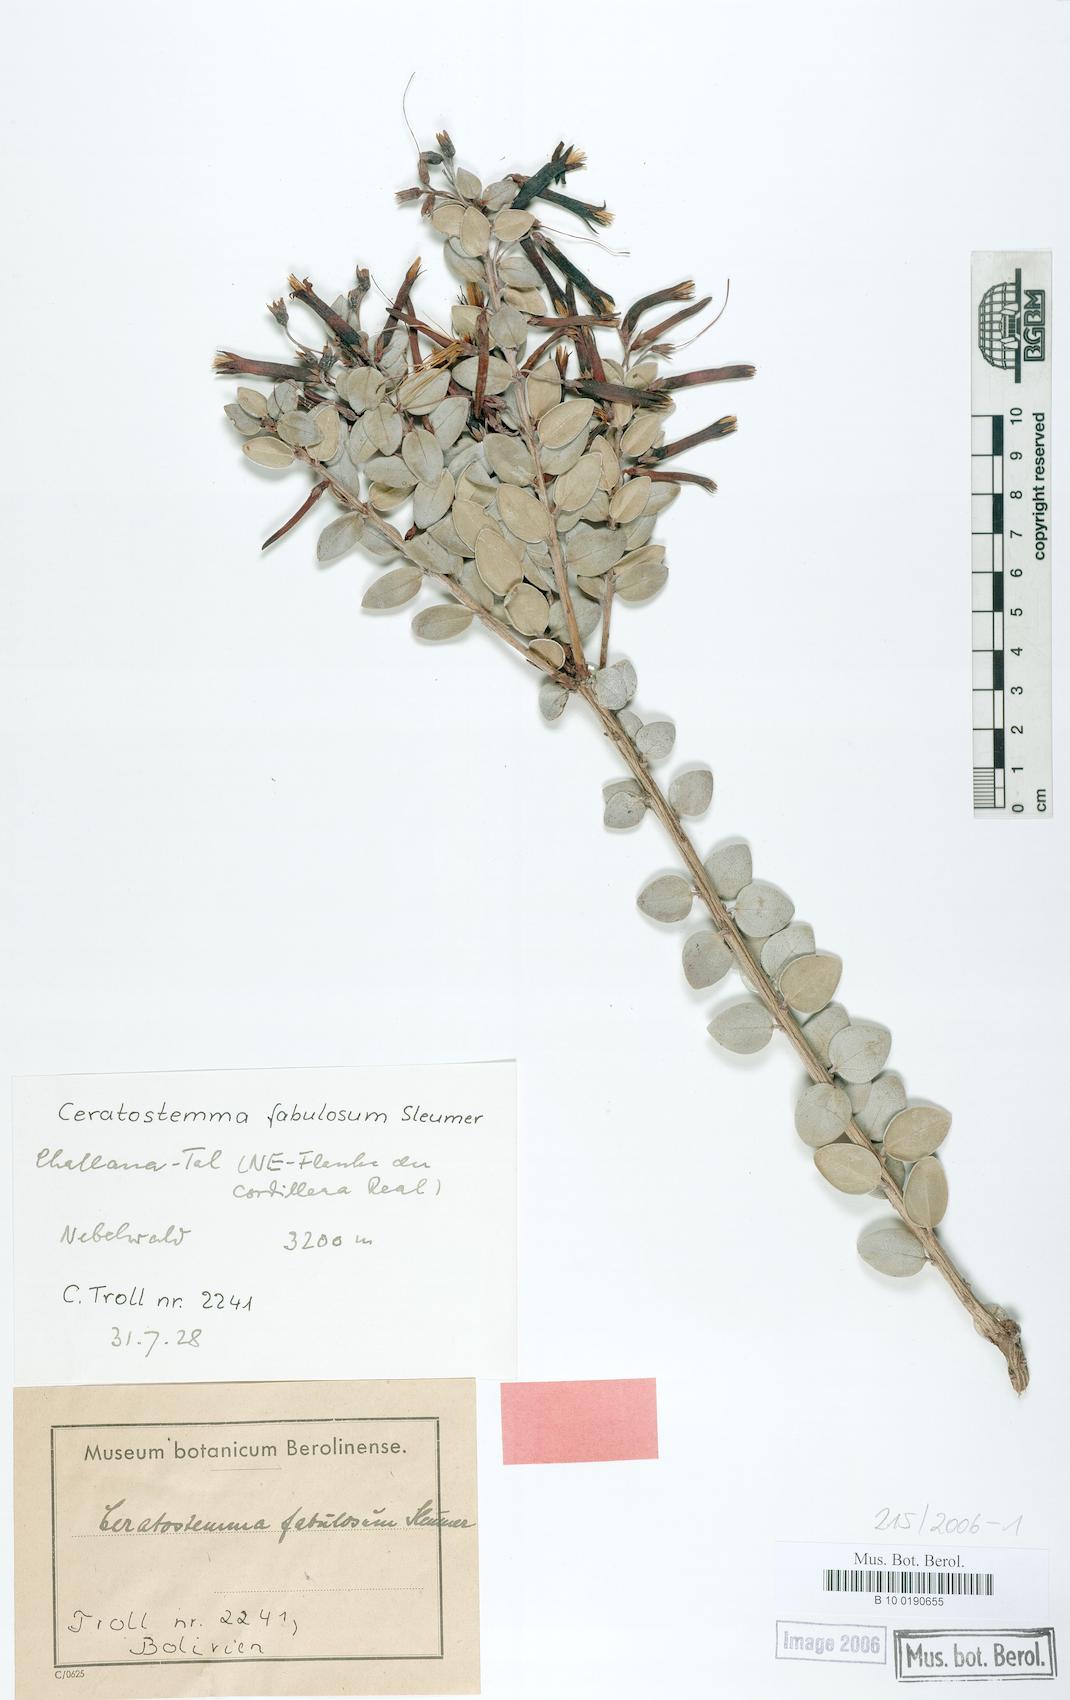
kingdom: Plantae
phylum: Tracheophyta
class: Magnoliopsida
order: Ericales
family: Ericaceae
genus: Demosthenesia
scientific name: Demosthenesia fabulosa
